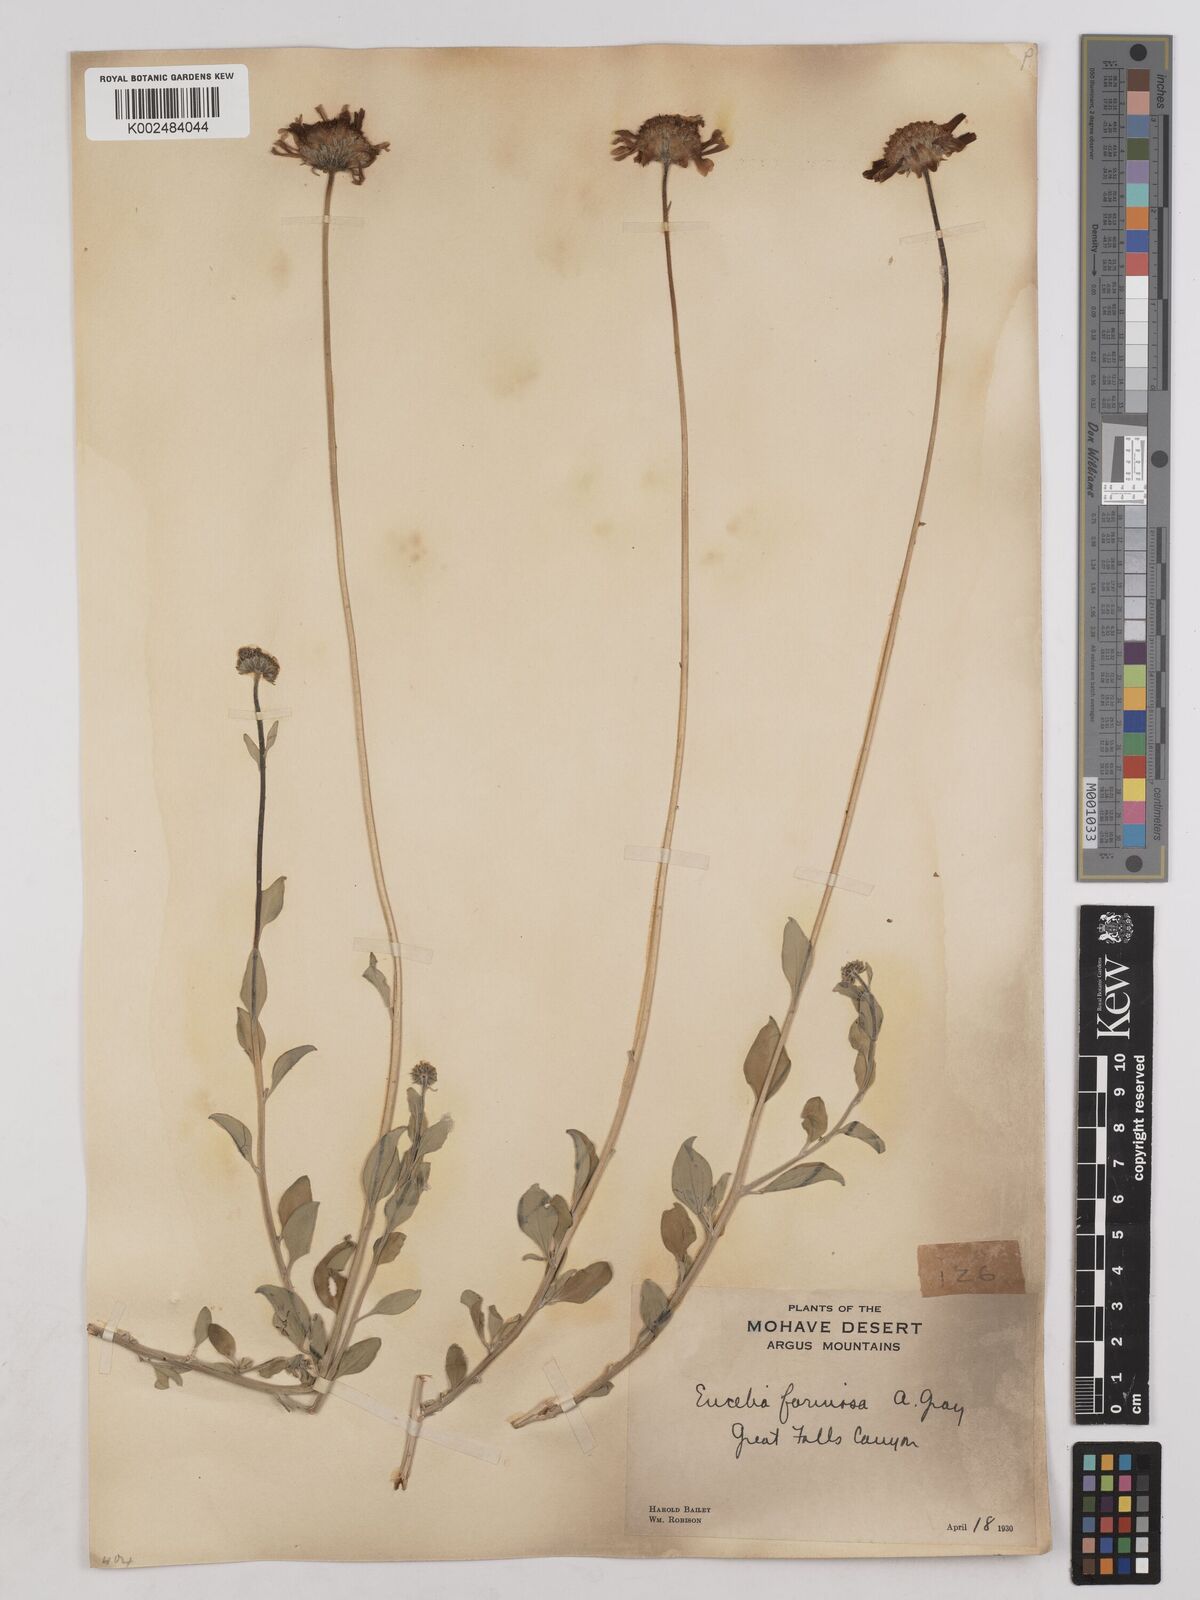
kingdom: Plantae
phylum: Tracheophyta
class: Magnoliopsida
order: Asterales
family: Asteraceae
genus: Encelia
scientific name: Encelia farinosa
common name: Brittlebush
